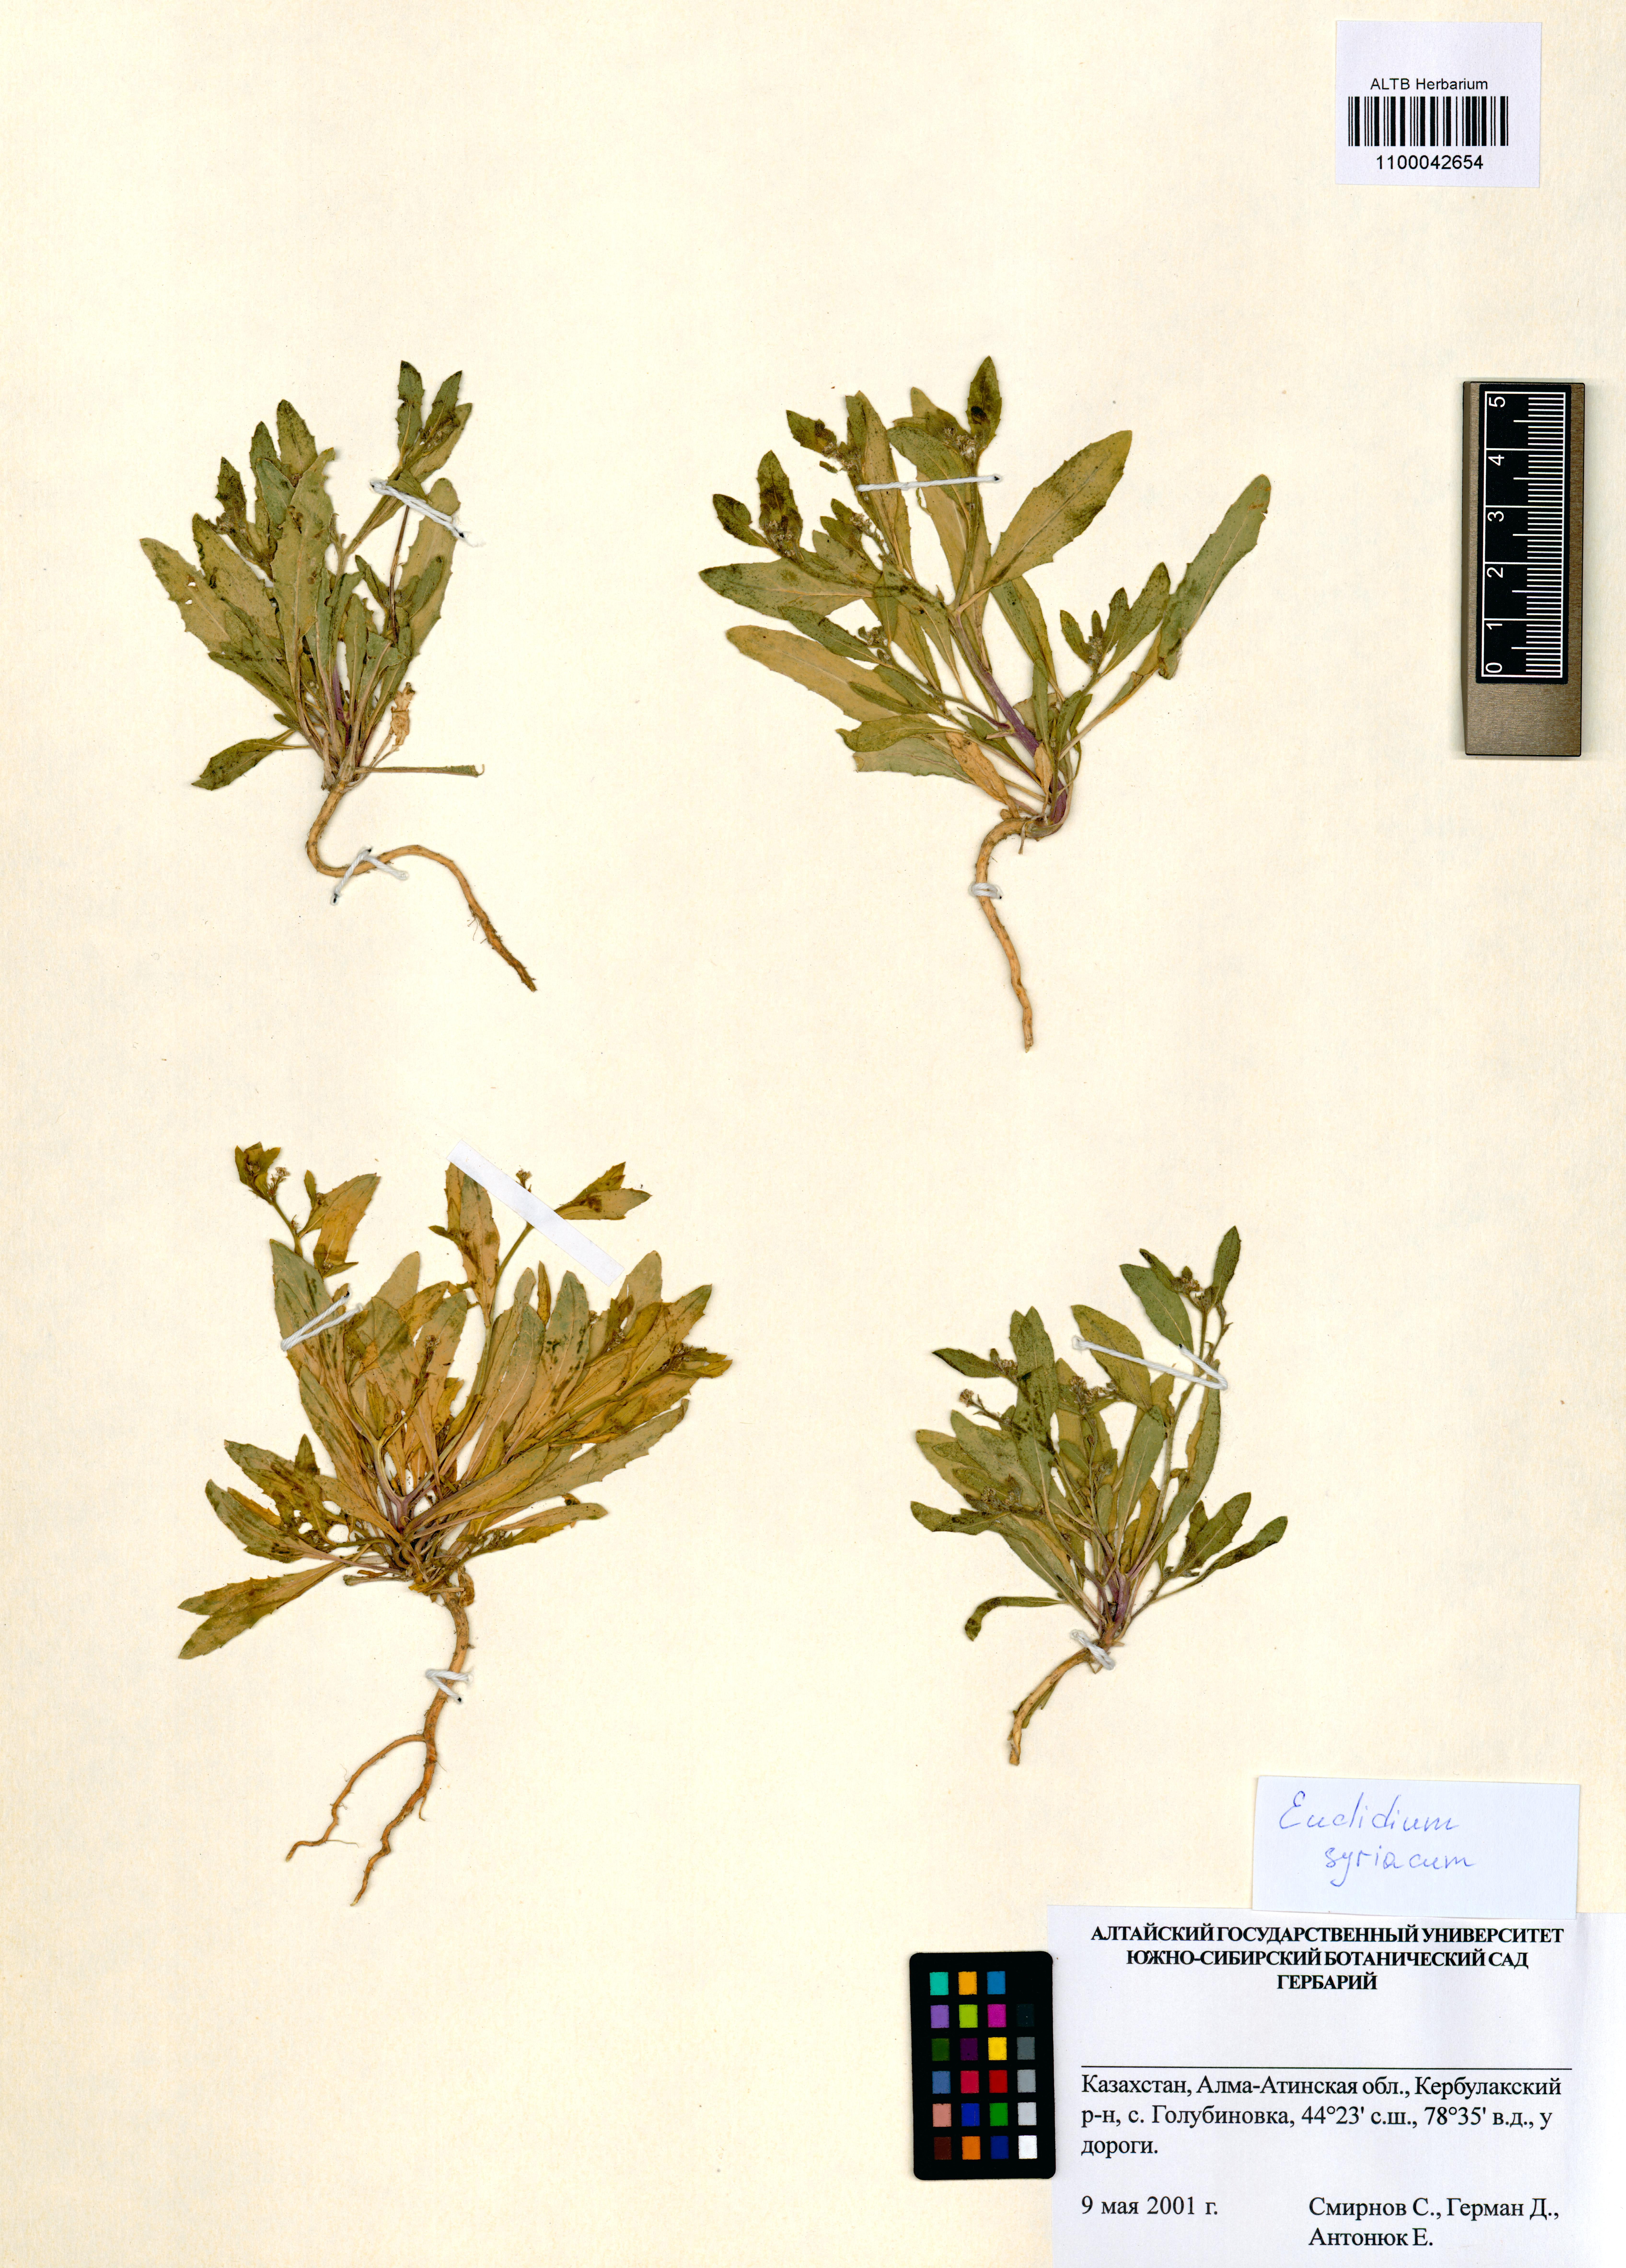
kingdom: Plantae
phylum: Tracheophyta
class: Magnoliopsida
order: Brassicales
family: Brassicaceae
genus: Euclidium
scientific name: Euclidium syriacum
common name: Syrian mustard
